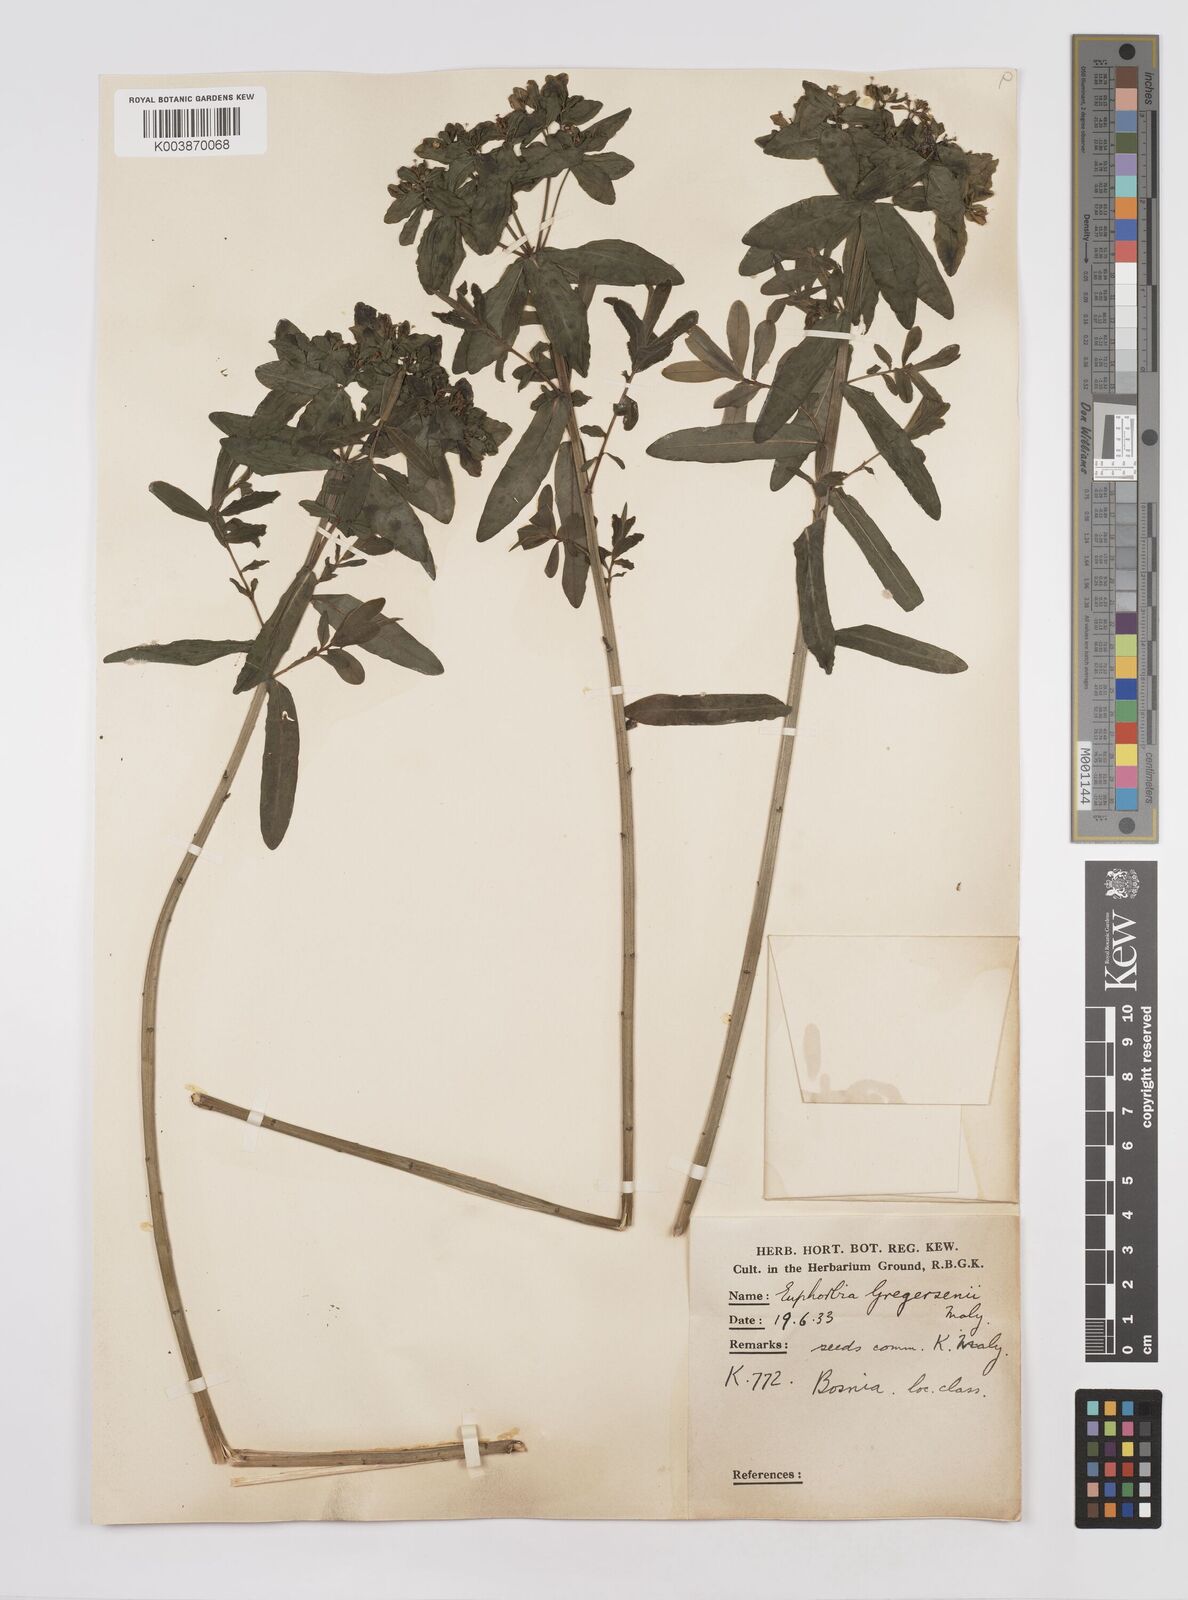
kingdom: Plantae
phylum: Tracheophyta
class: Magnoliopsida
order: Malpighiales
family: Euphorbiaceae
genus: Euphorbia
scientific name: Euphorbia gregersenii
